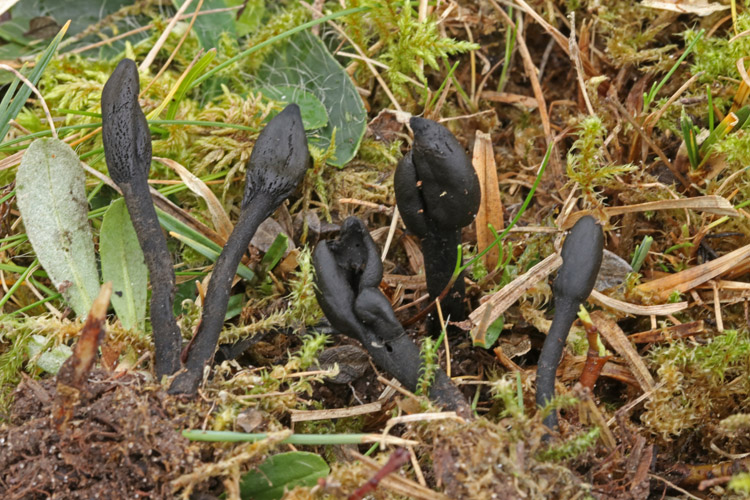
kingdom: Fungi
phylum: Ascomycota
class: Geoglossomycetes
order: Geoglossales
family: Geoglossaceae
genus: Trichoglossum
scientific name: Trichoglossum hirsutum
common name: håret jordtunge
